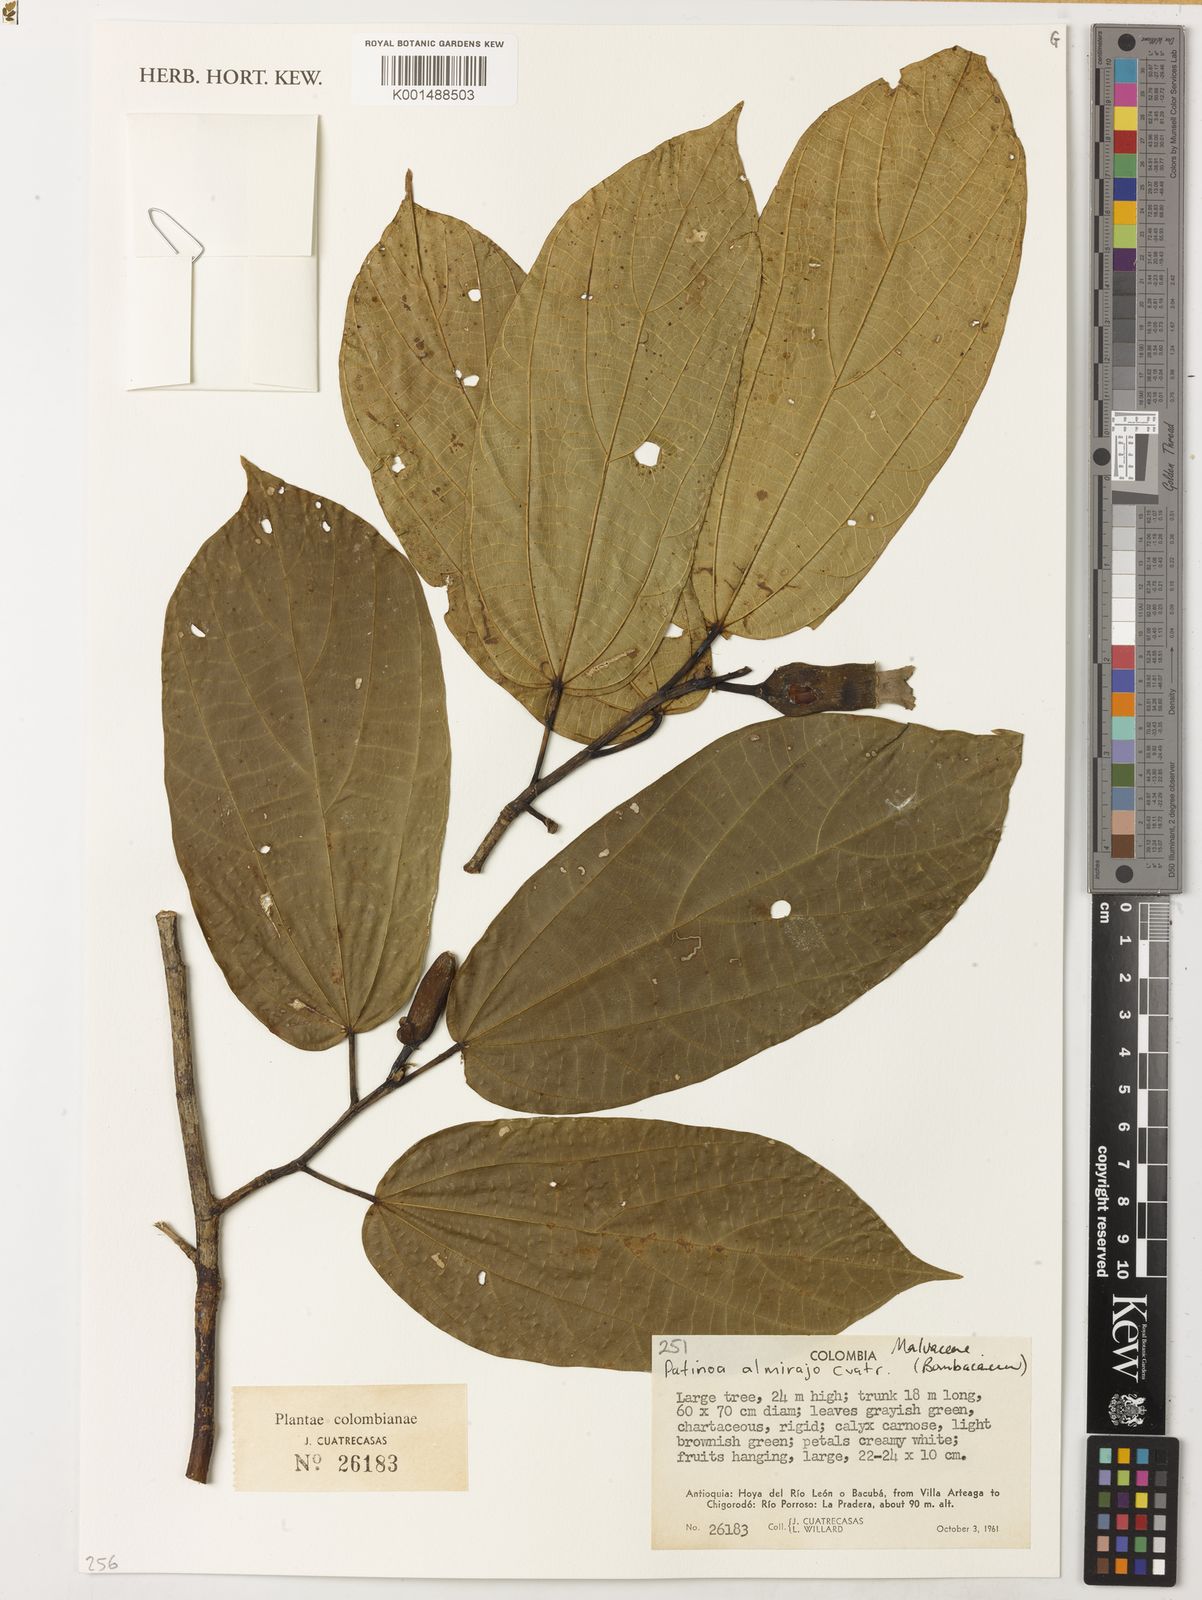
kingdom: Plantae
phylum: Tracheophyta
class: Magnoliopsida
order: Malvales
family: Malvaceae
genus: Patinoa
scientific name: Patinoa almirajo
